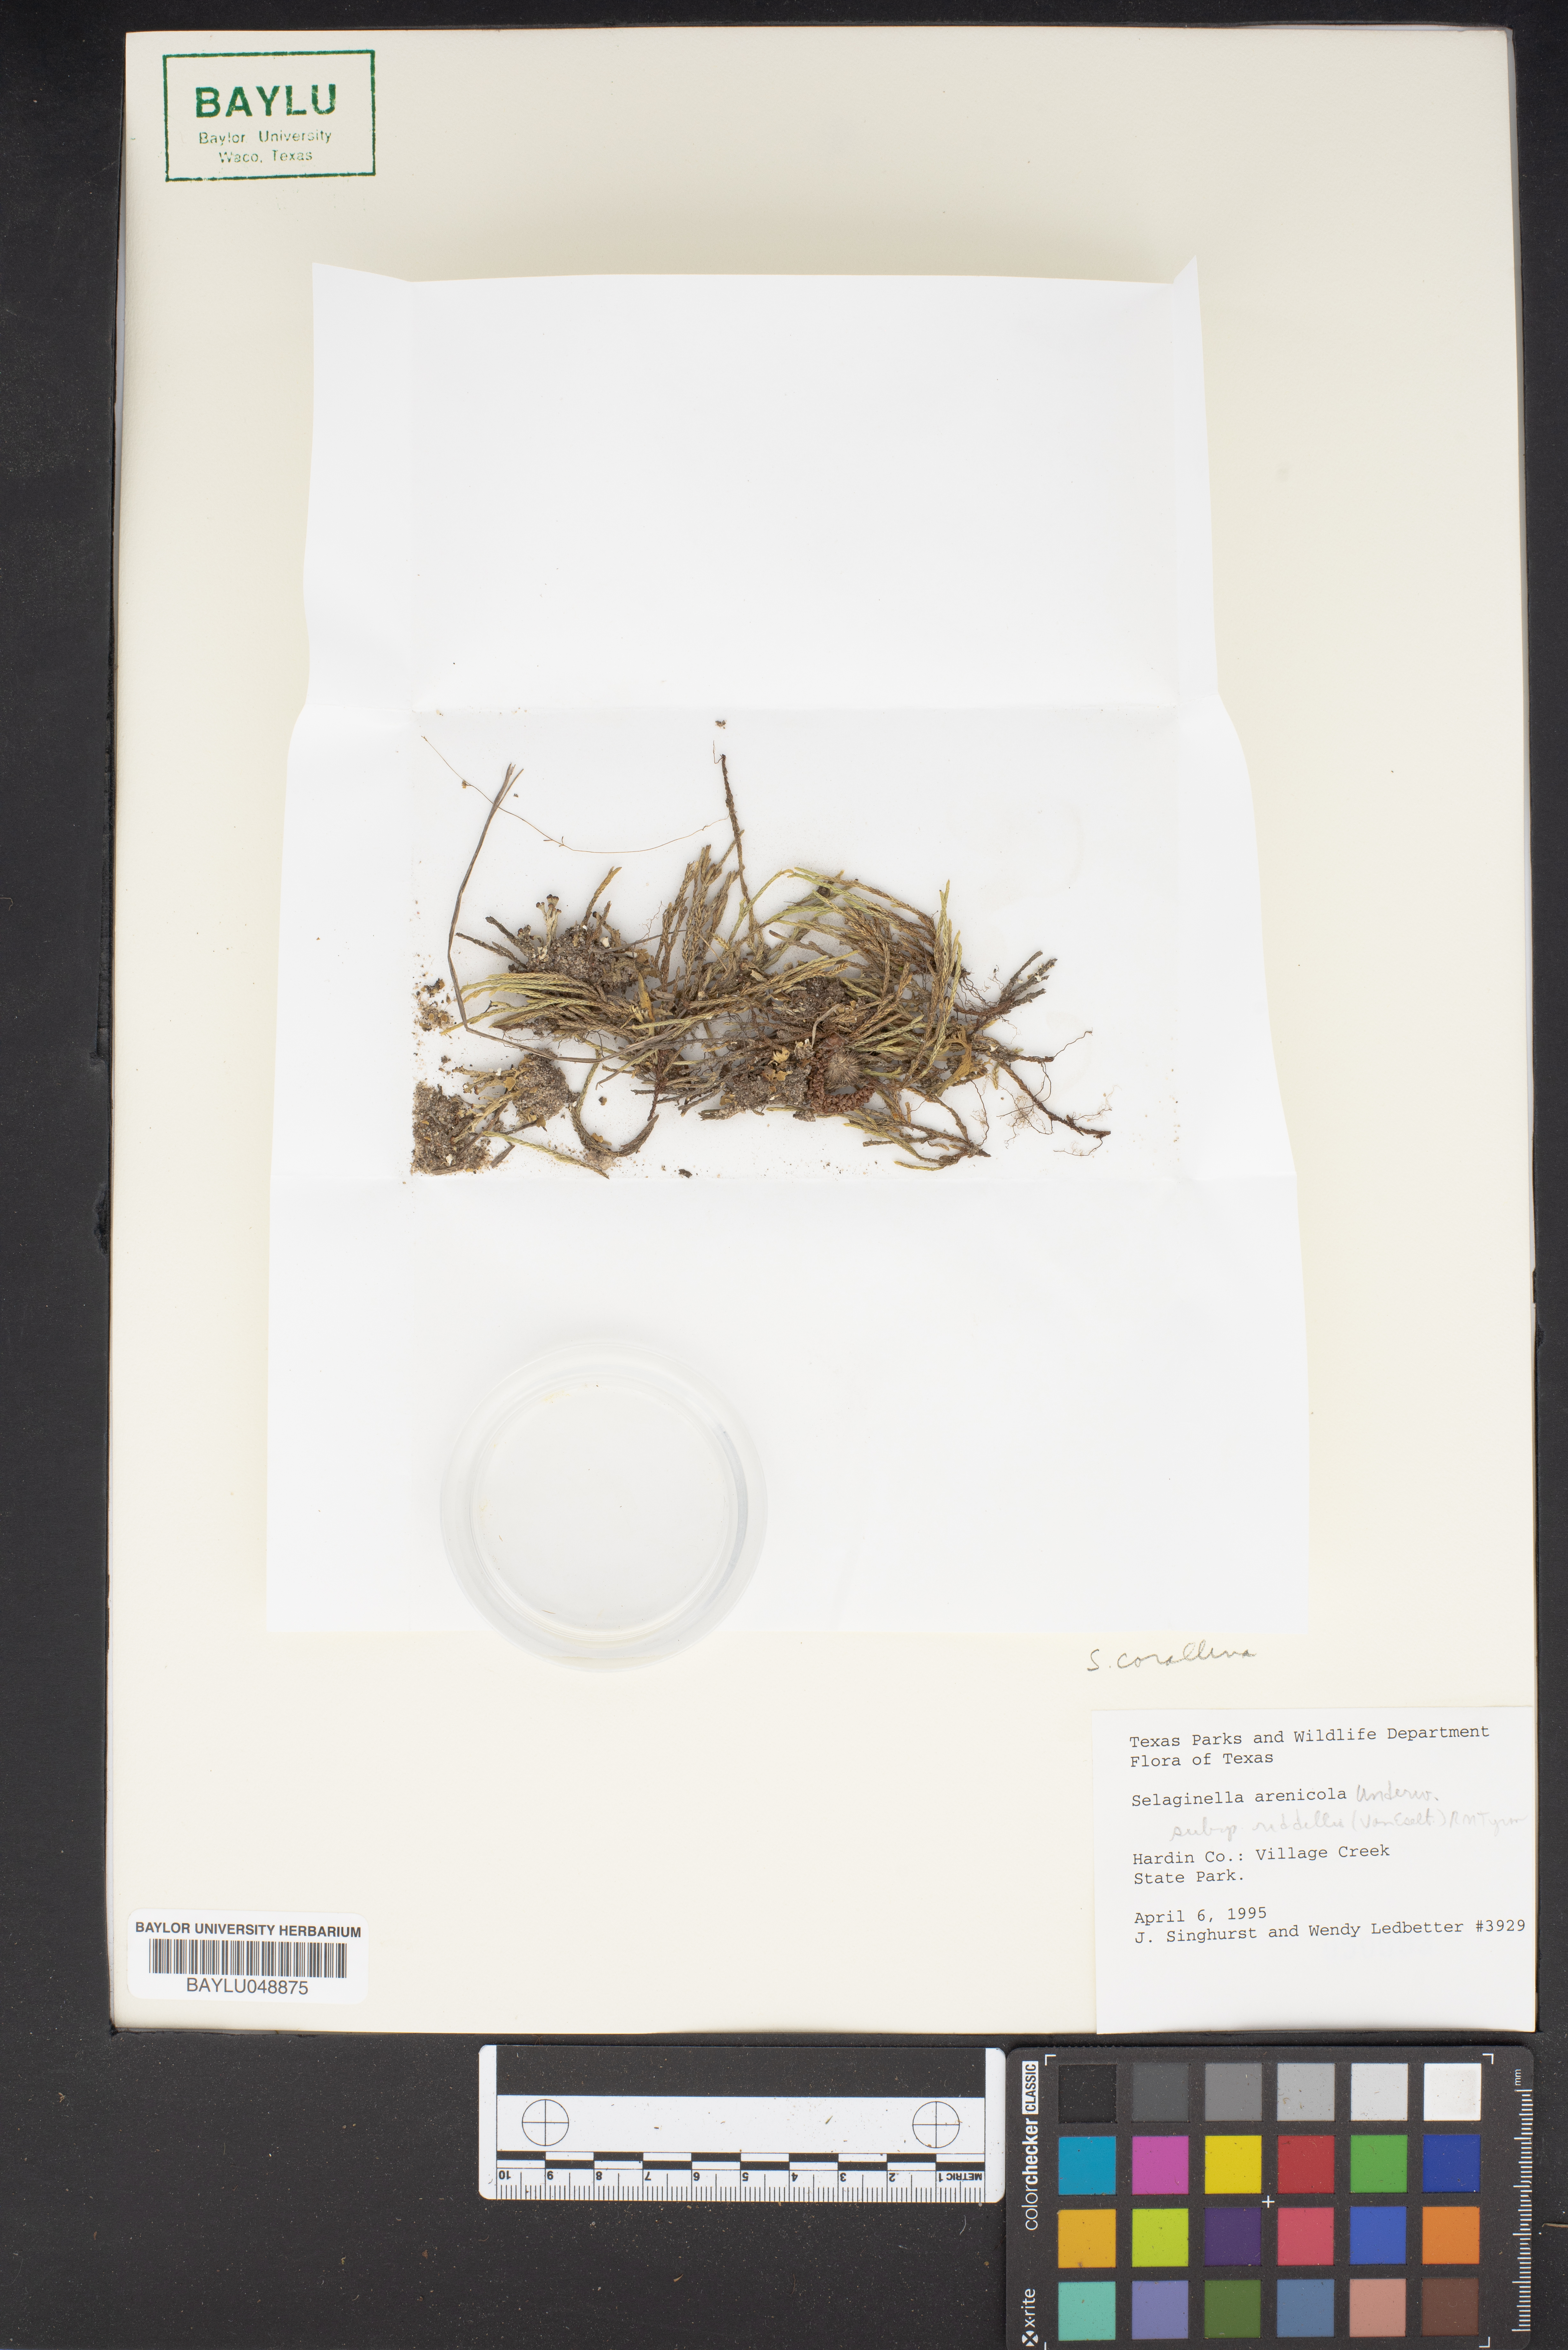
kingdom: Plantae
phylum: Tracheophyta
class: Lycopodiopsida
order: Selaginellales
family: Selaginellaceae
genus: Selaginella
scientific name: Selaginella arenicola
